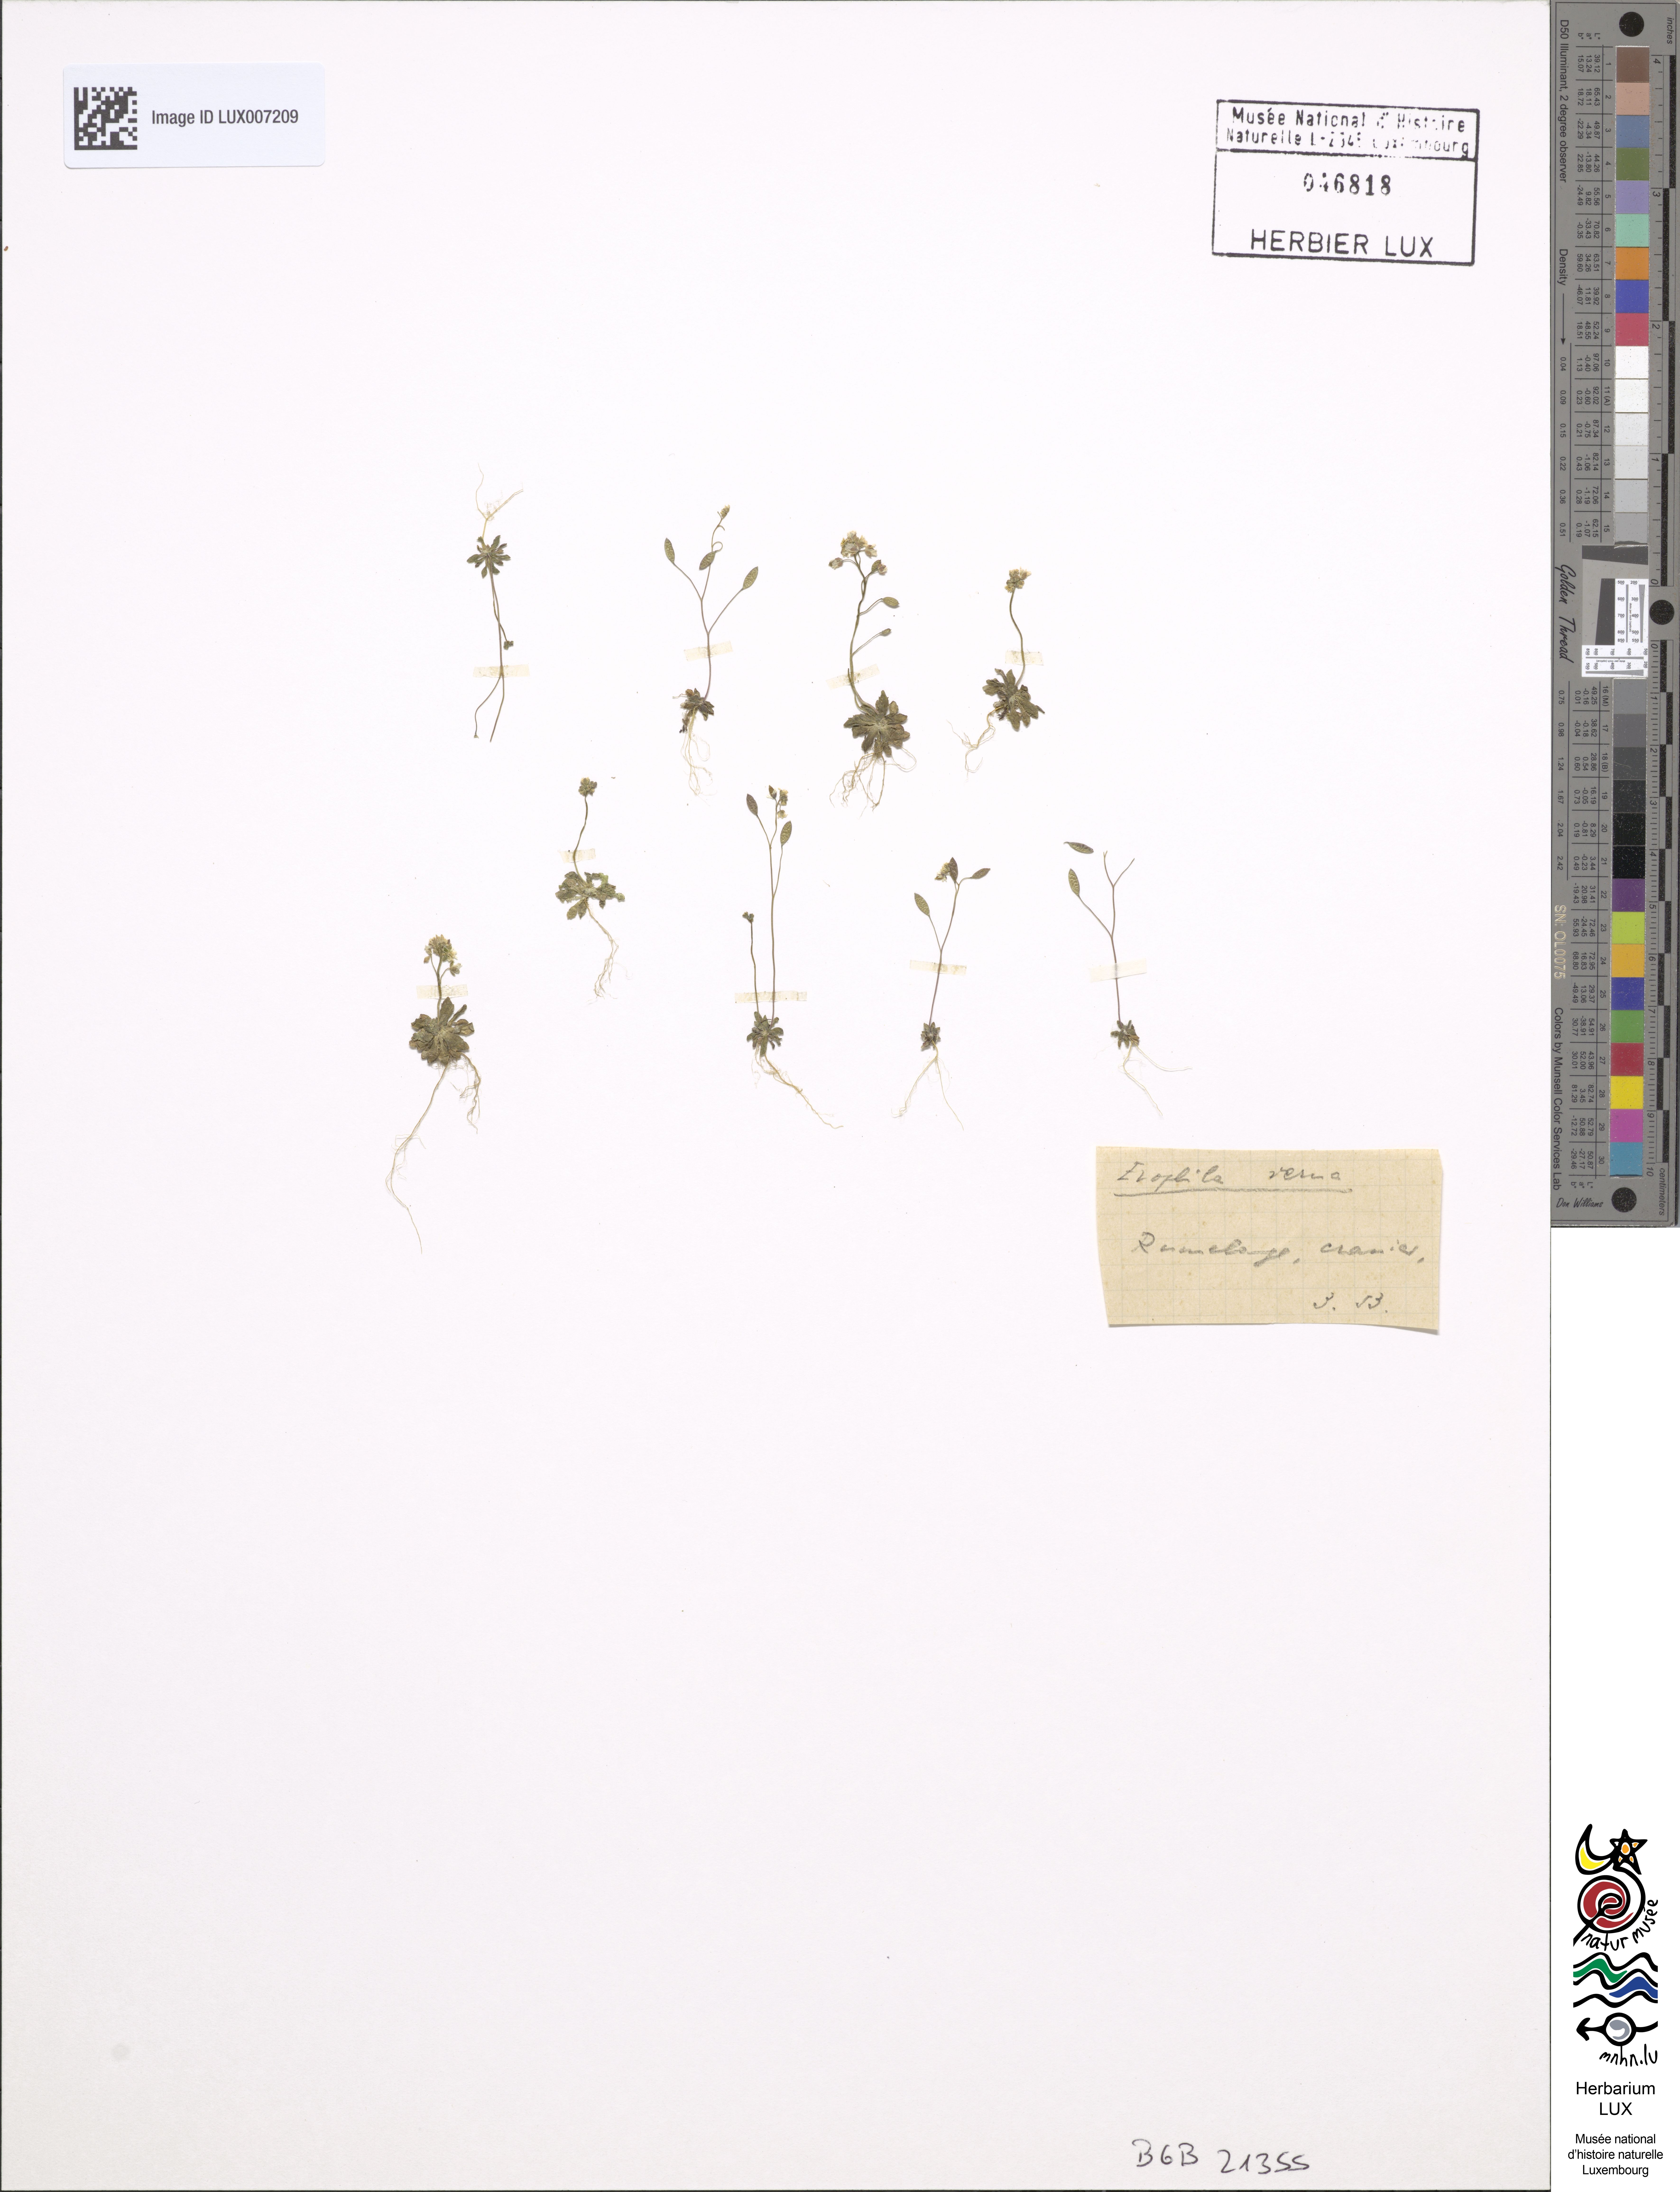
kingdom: Plantae
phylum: Tracheophyta
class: Magnoliopsida
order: Brassicales
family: Brassicaceae
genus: Draba
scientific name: Draba verna
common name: Spring draba
